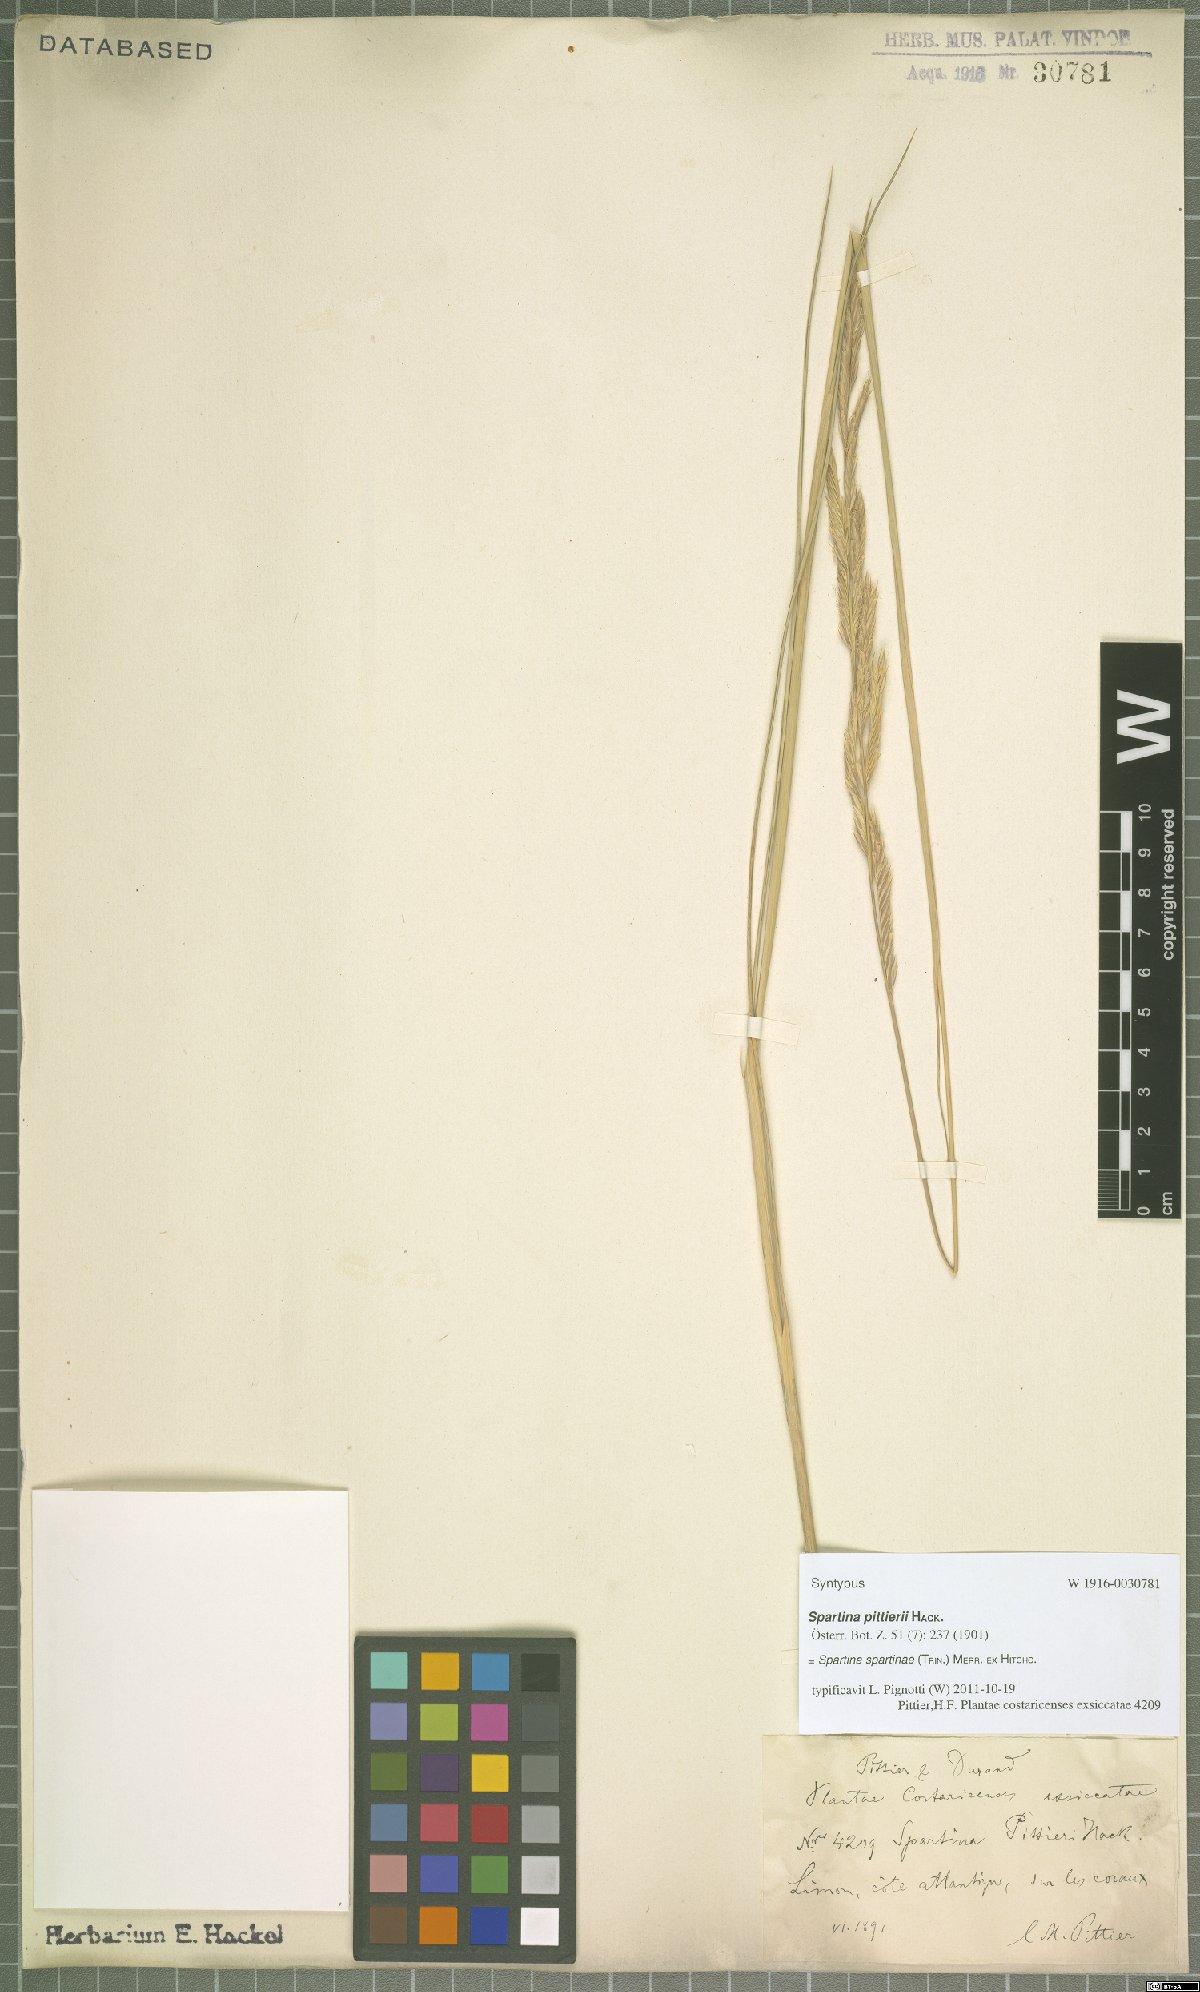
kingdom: Plantae
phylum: Tracheophyta
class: Liliopsida
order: Poales
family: Poaceae
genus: Sporobolus
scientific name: Sporobolus spartinae
